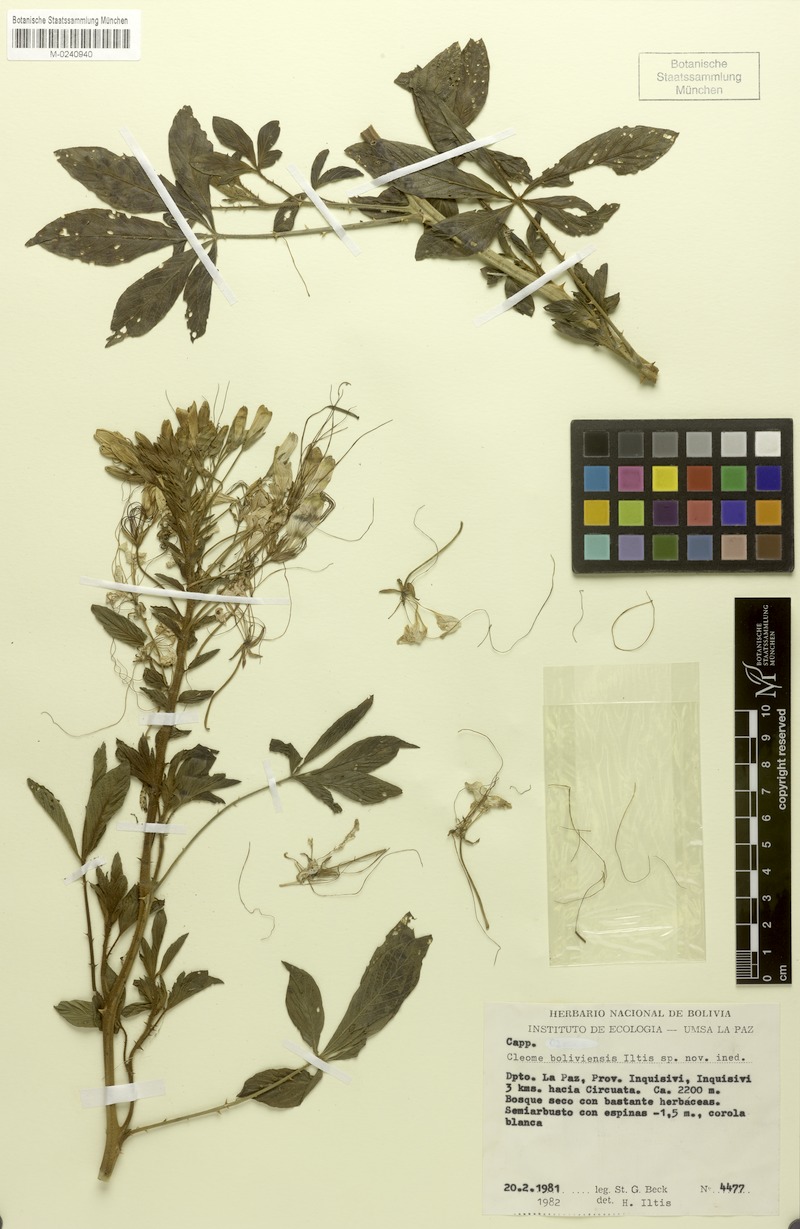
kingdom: Plantae
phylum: Tracheophyta
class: Magnoliopsida
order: Brassicales
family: Cleomaceae
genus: Tarenaya
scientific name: Tarenaya boliviensis
